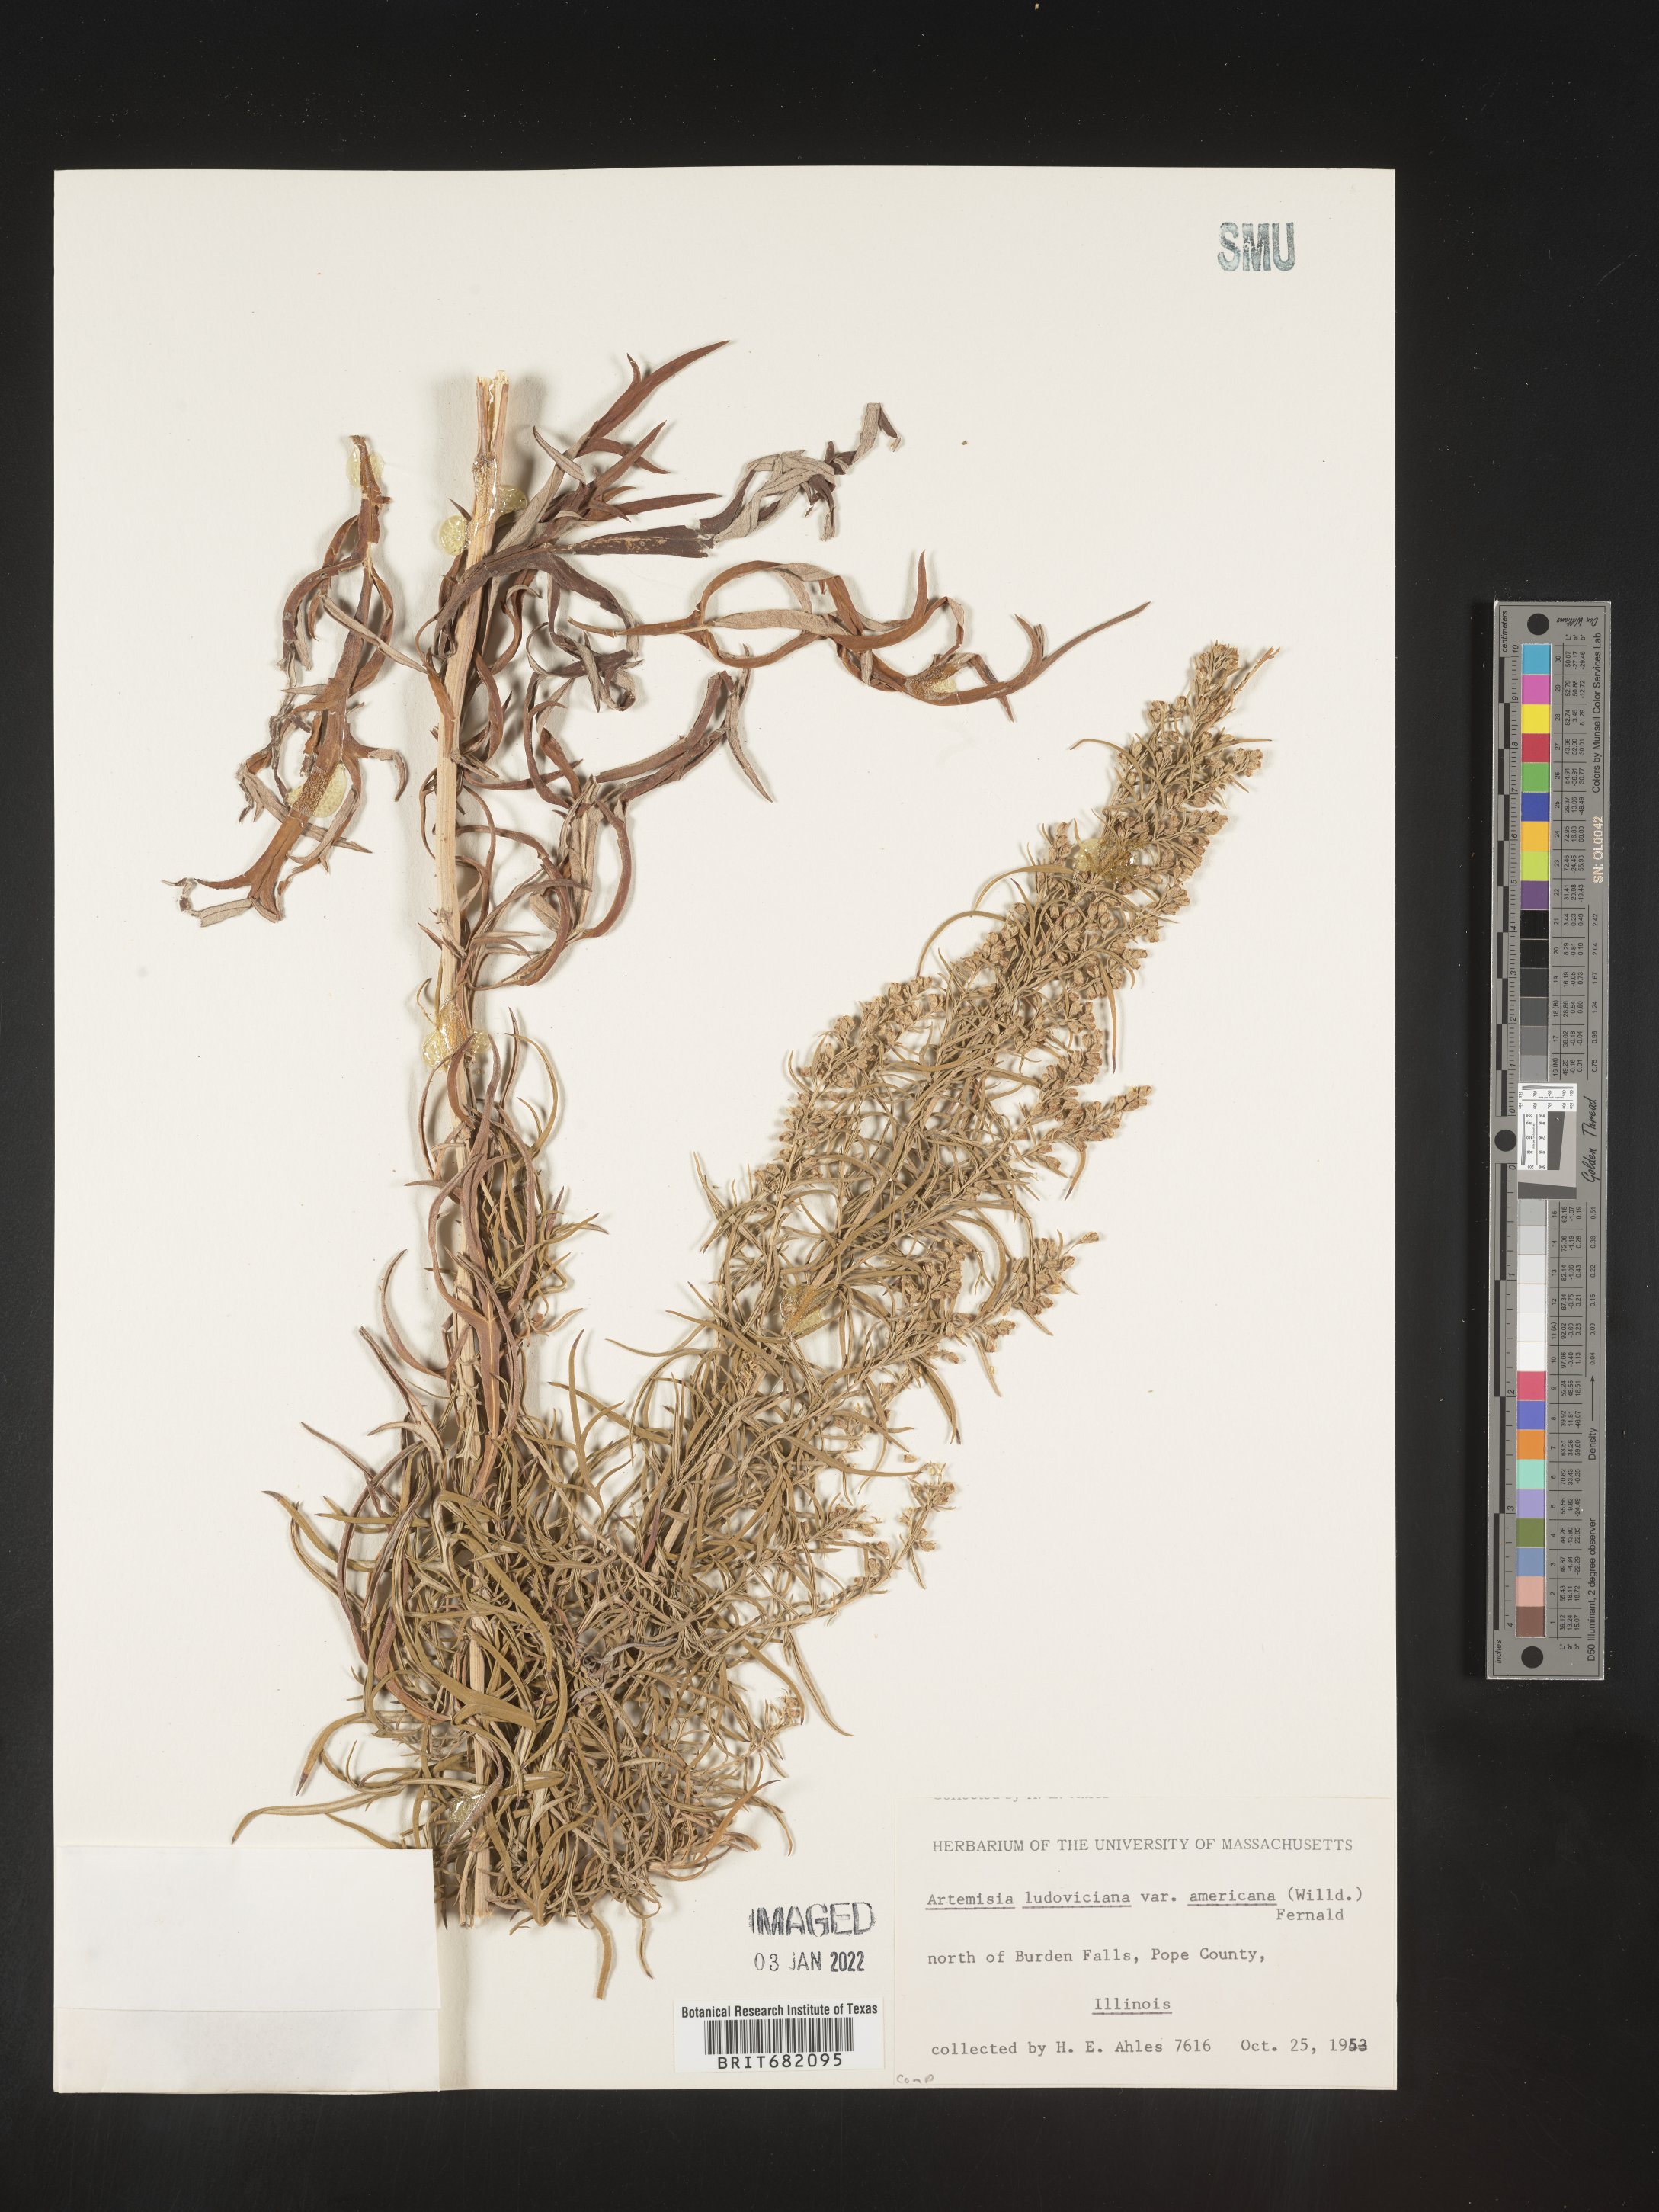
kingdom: Plantae
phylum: Tracheophyta
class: Magnoliopsida
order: Asterales
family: Asteraceae
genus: Artemisia
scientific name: Artemisia ludoviciana
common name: Western mugwort
